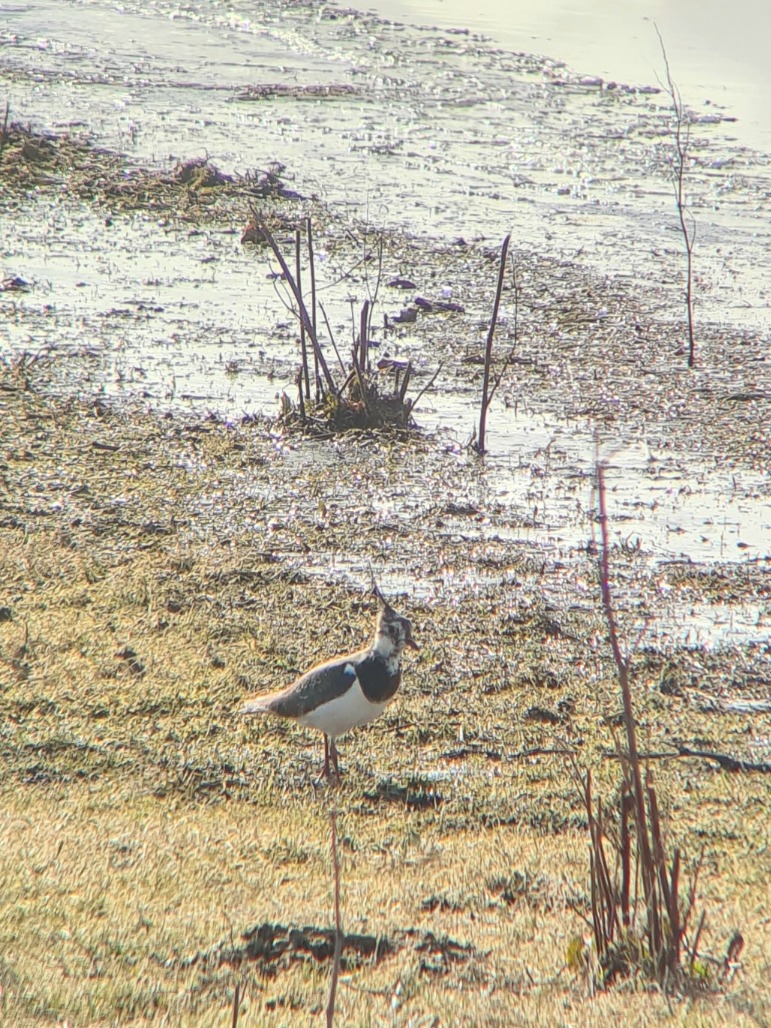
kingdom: Animalia
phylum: Chordata
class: Aves
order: Charadriiformes
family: Charadriidae
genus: Vanellus
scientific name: Vanellus vanellus
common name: Vibe
